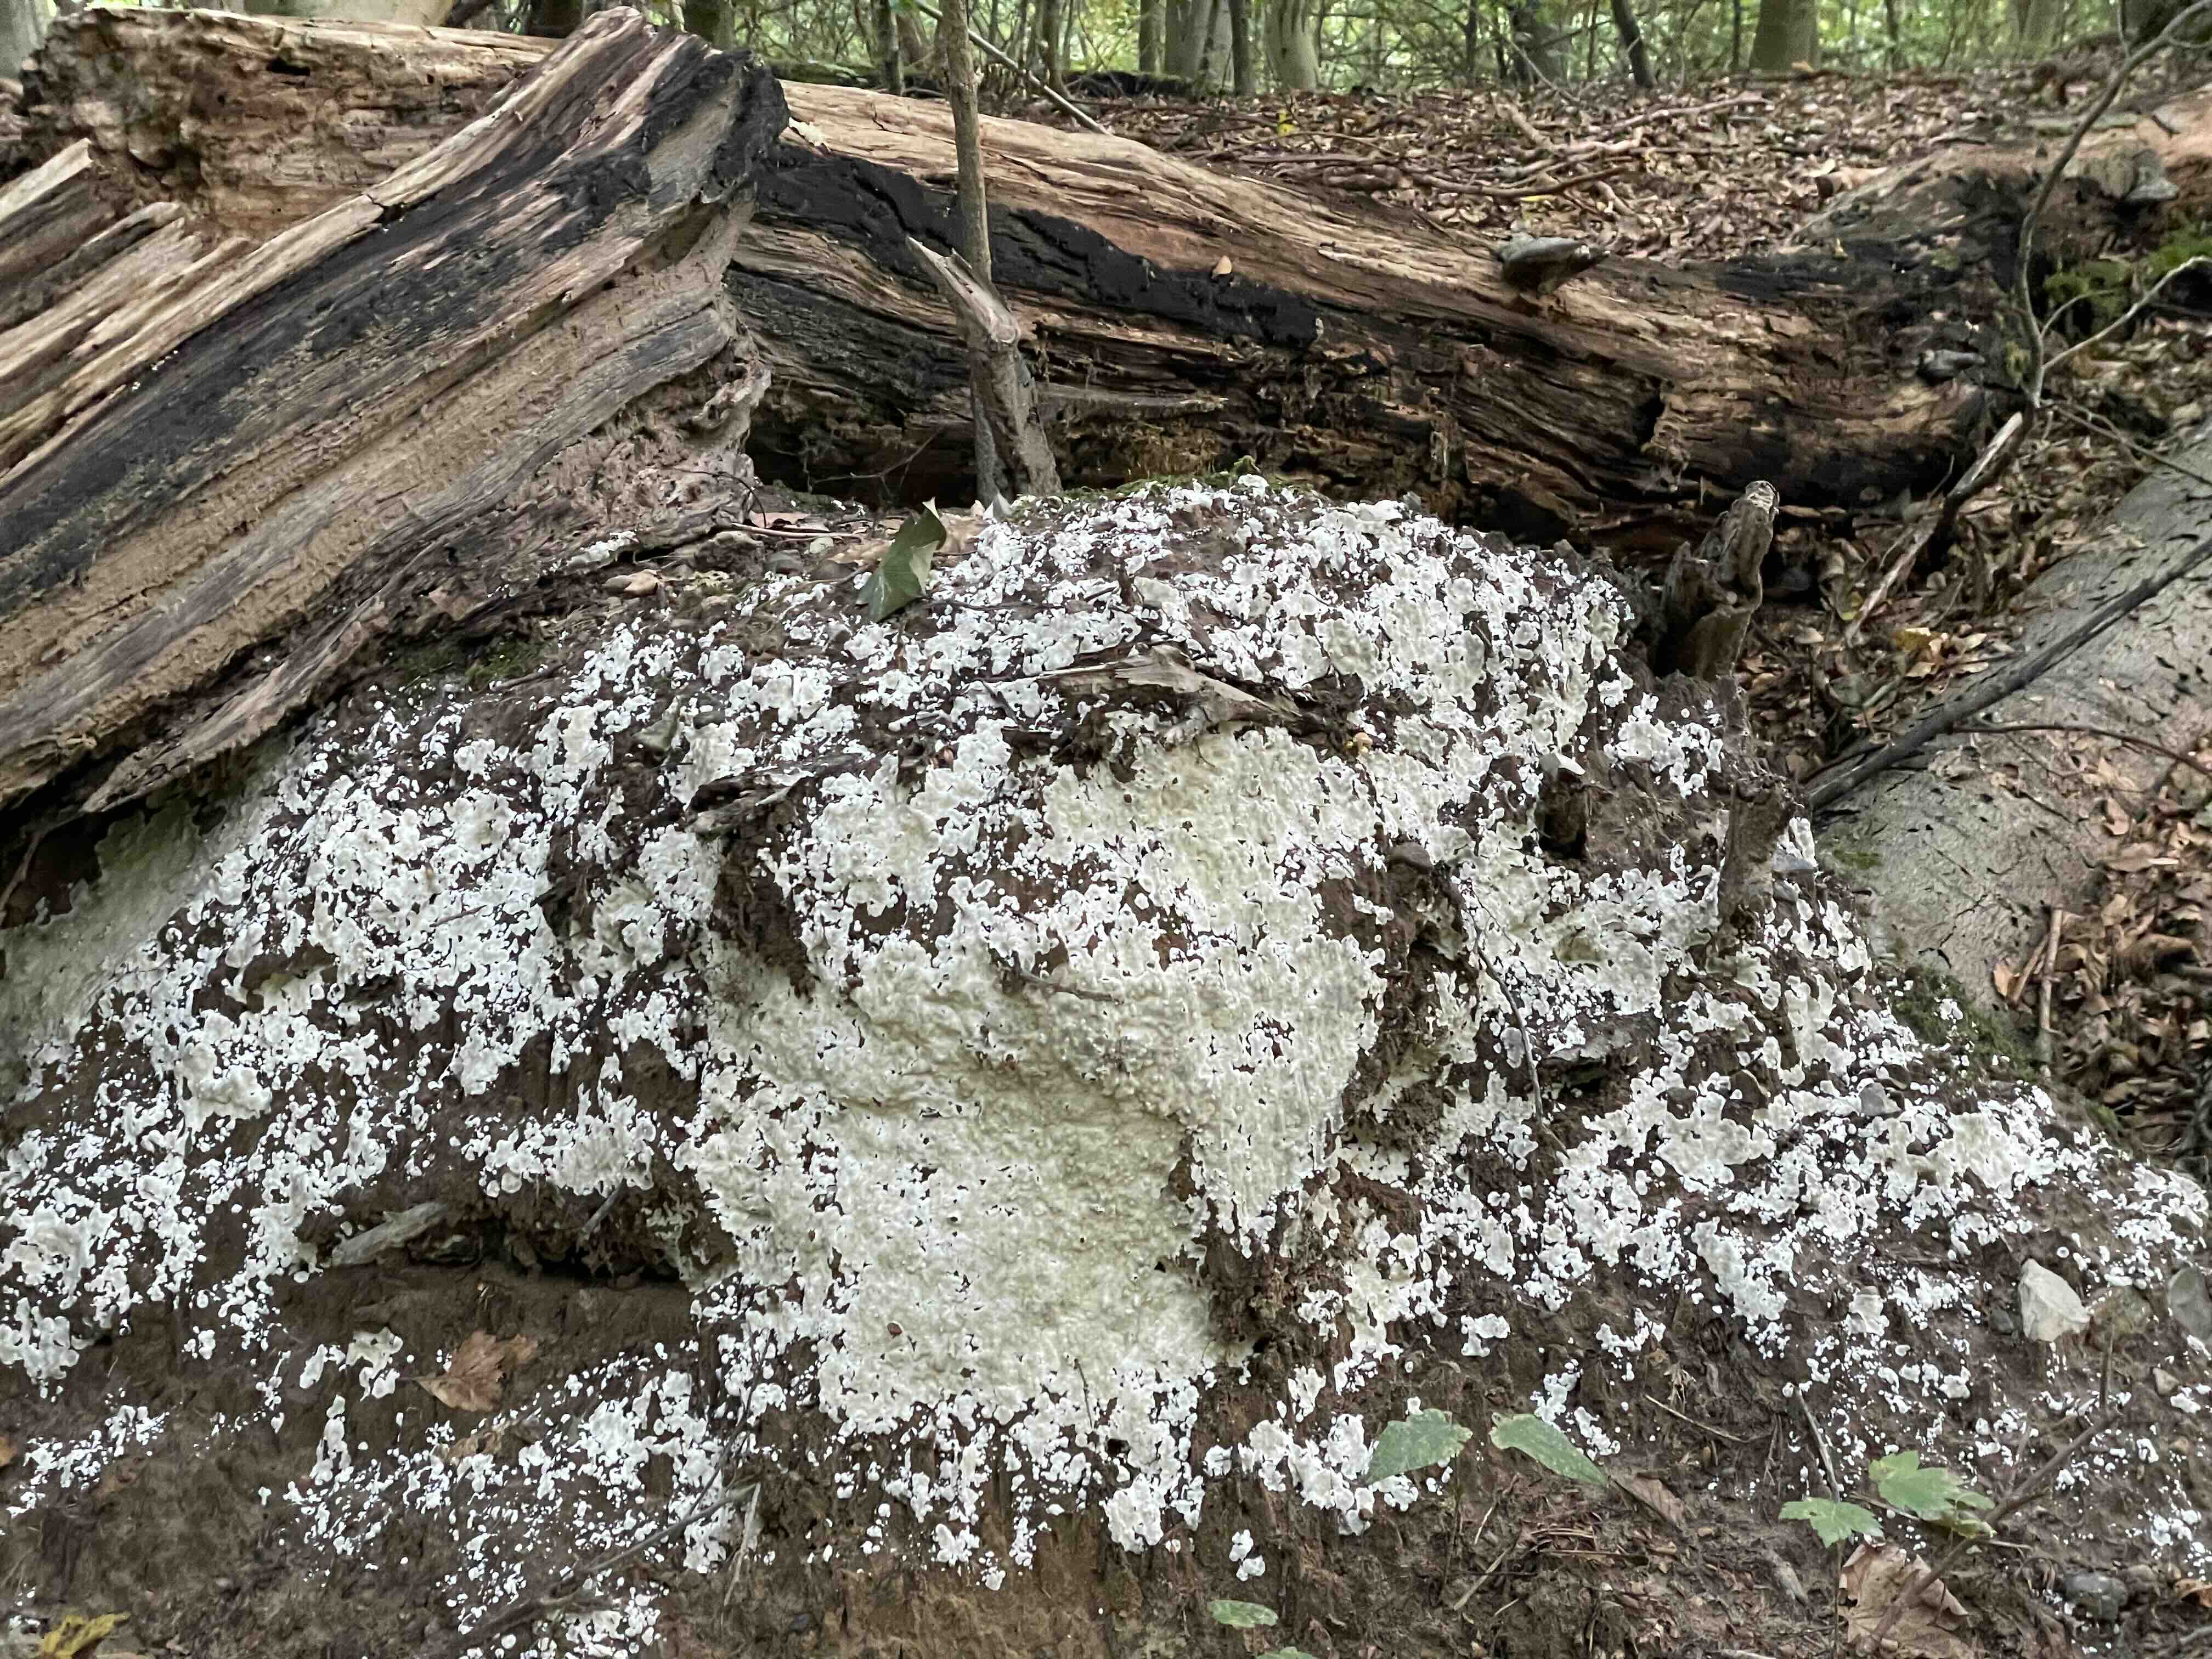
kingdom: Fungi
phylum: Basidiomycota
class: Agaricomycetes
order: Polyporales
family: Meruliaceae
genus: Physisporinus
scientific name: Physisporinus
